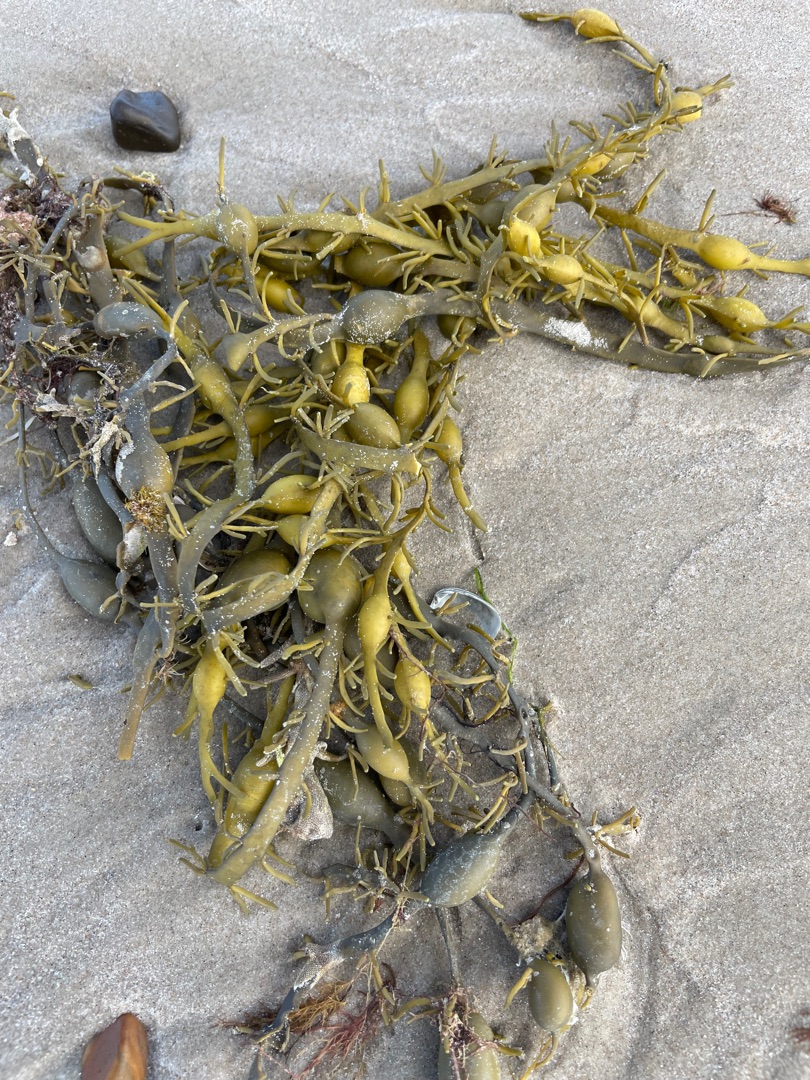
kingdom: Chromista
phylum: Ochrophyta
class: Phaeophyceae
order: Fucales
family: Fucaceae
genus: Ascophyllum
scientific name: Ascophyllum nodosum
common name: Buletang
